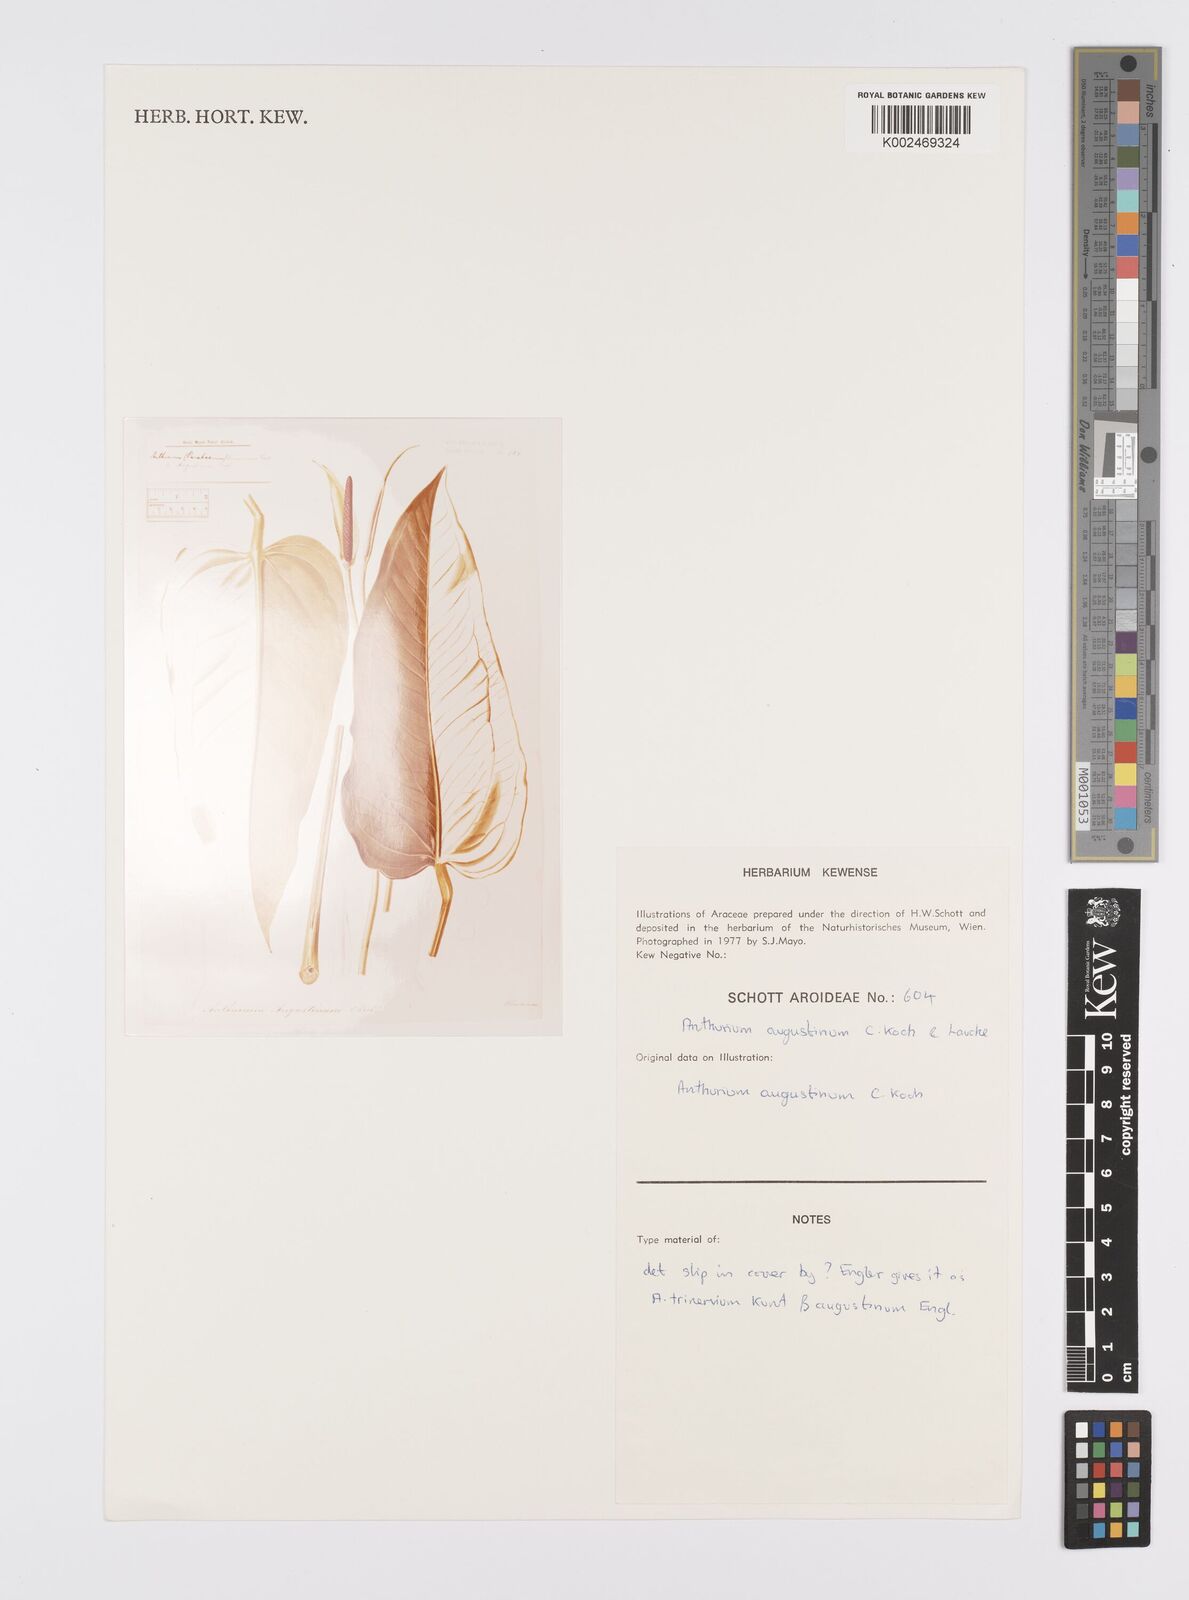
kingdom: Plantae
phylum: Tracheophyta
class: Liliopsida
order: Alismatales
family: Araceae
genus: Anthurium
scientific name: Anthurium augustinum
